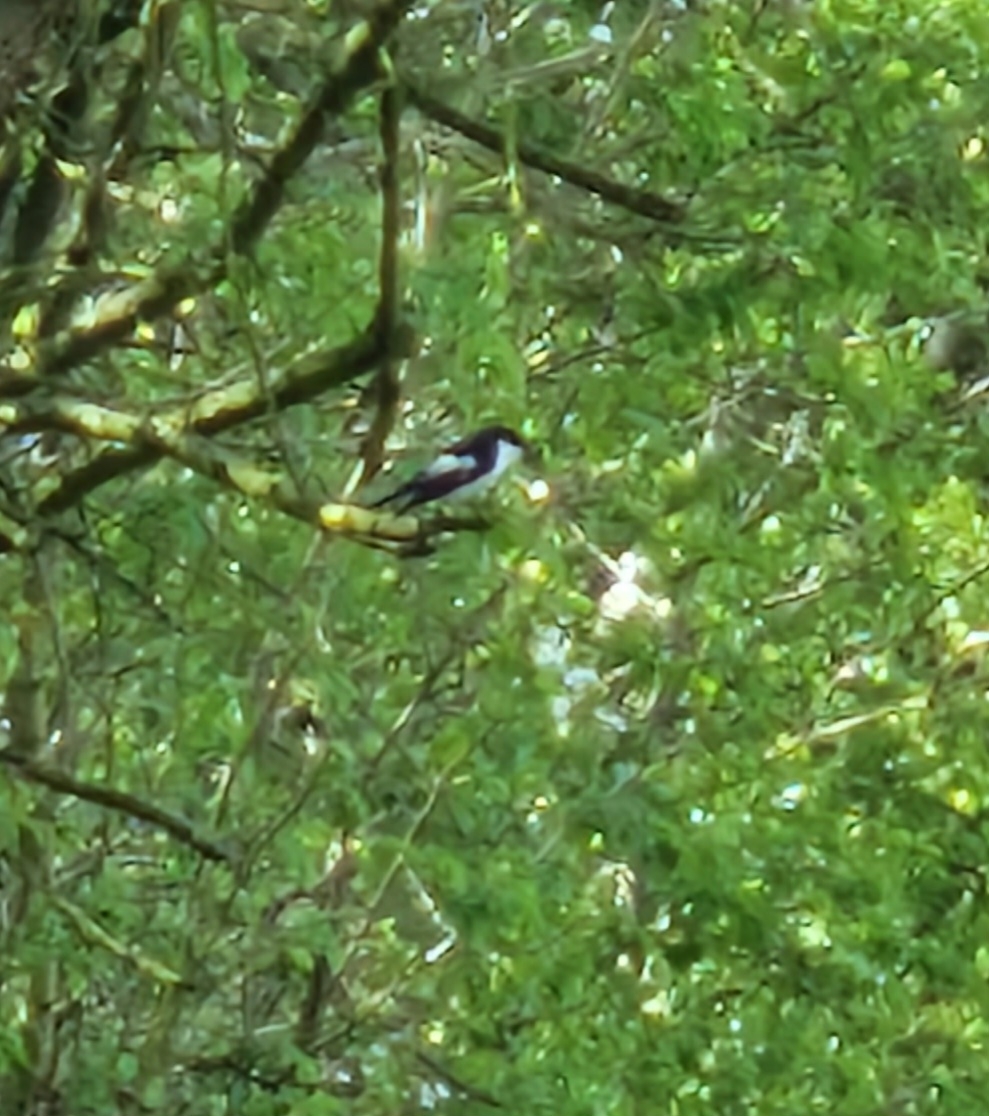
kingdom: Animalia
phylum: Chordata
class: Aves
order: Passeriformes
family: Muscicapidae
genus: Ficedula
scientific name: Ficedula hypoleuca
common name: Broget fluesnapper
